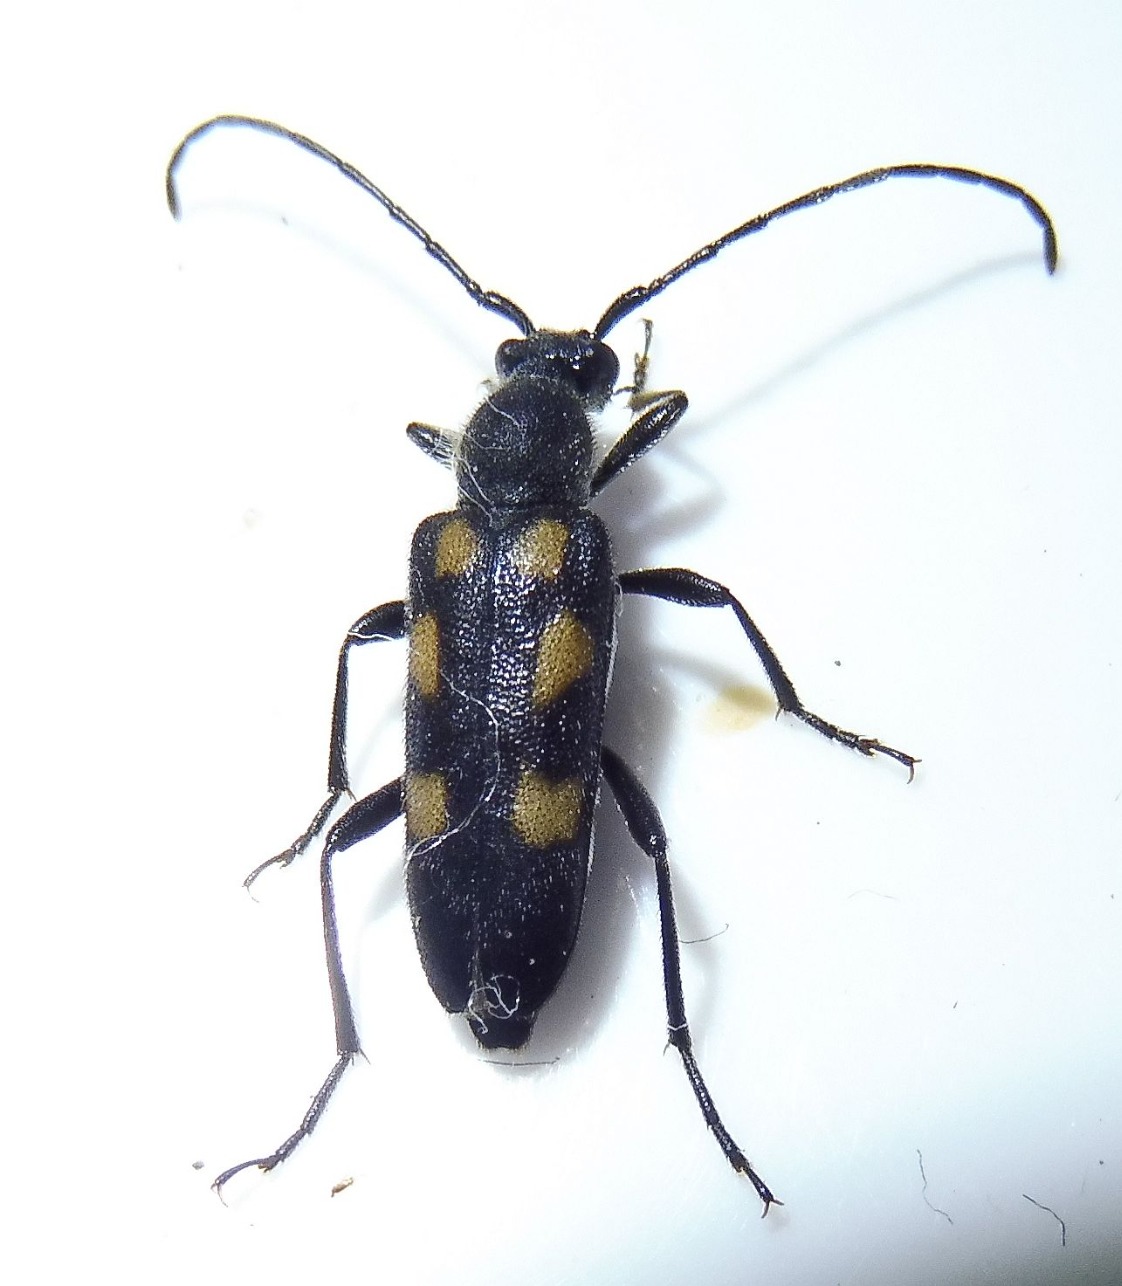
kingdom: Animalia
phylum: Arthropoda
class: Insecta
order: Coleoptera
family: Cerambycidae
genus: Anoplodera
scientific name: Anoplodera sexguttata
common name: Seksplettet blomsterbuk
